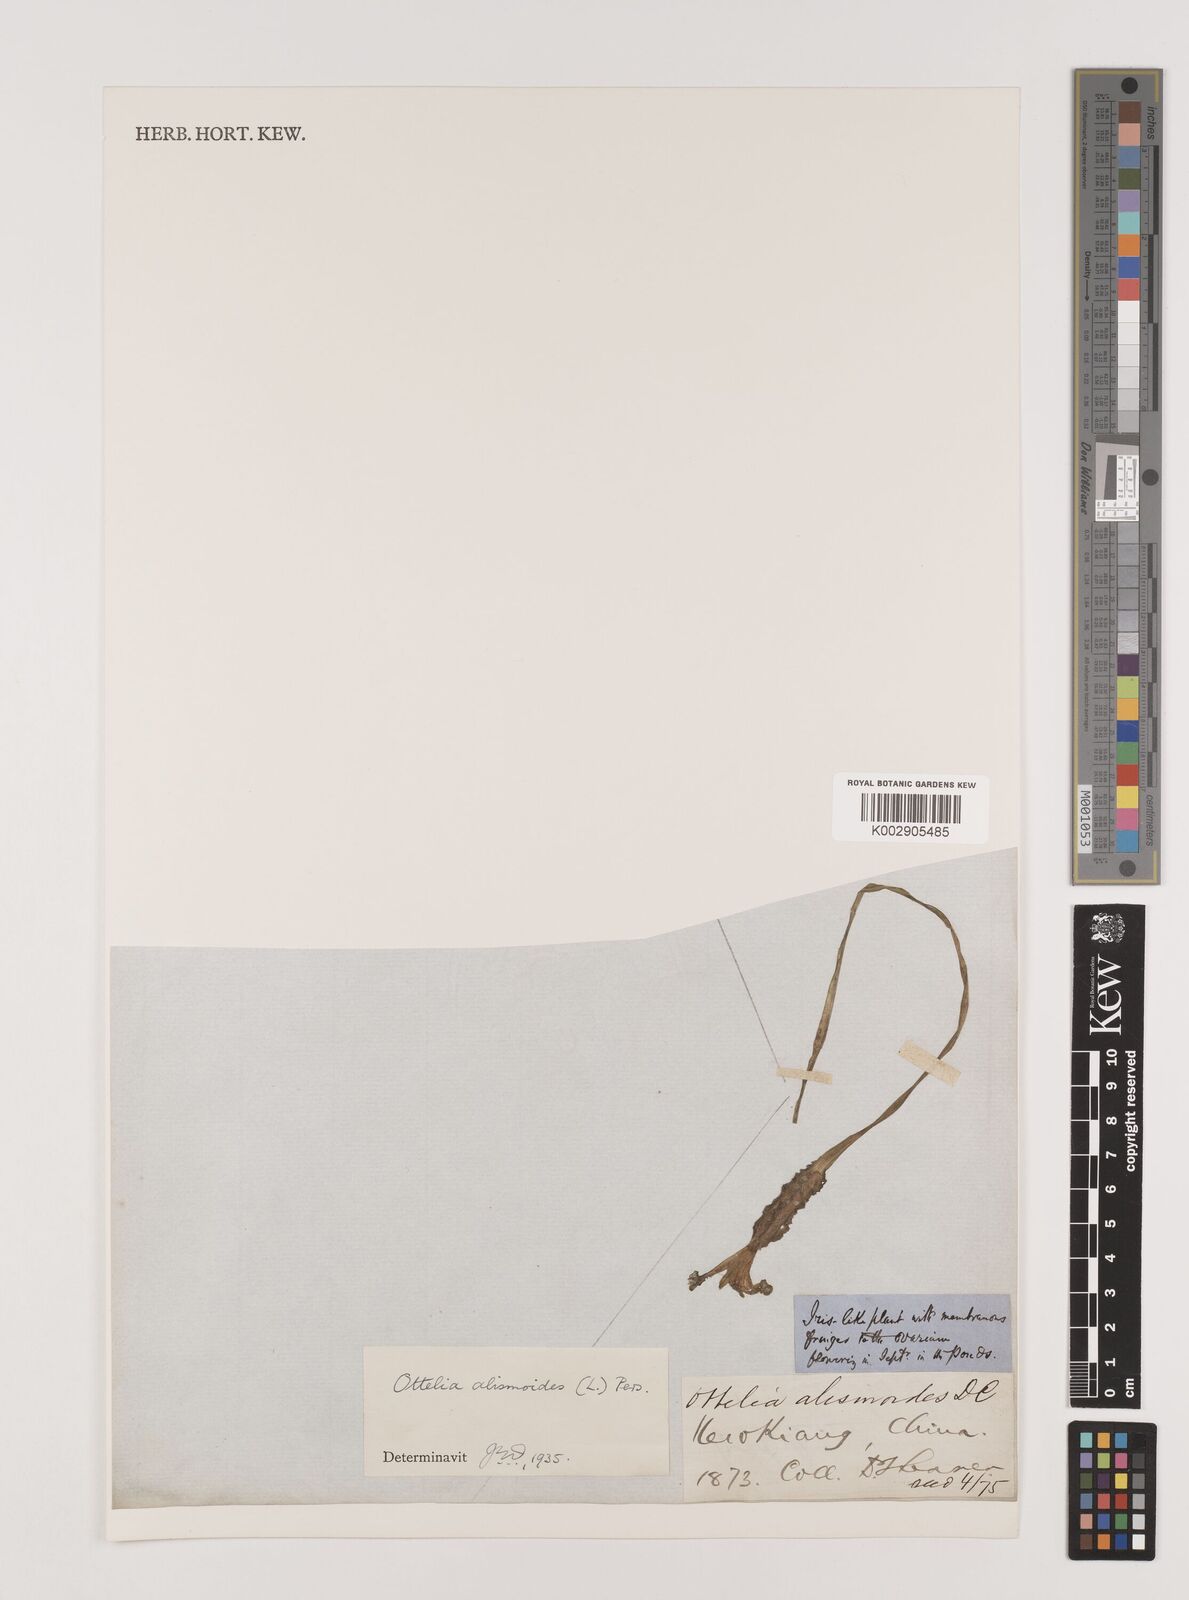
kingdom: Plantae
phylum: Tracheophyta
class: Liliopsida
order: Alismatales
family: Hydrocharitaceae
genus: Ottelia
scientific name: Ottelia alismoides
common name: Duck-lettuce
